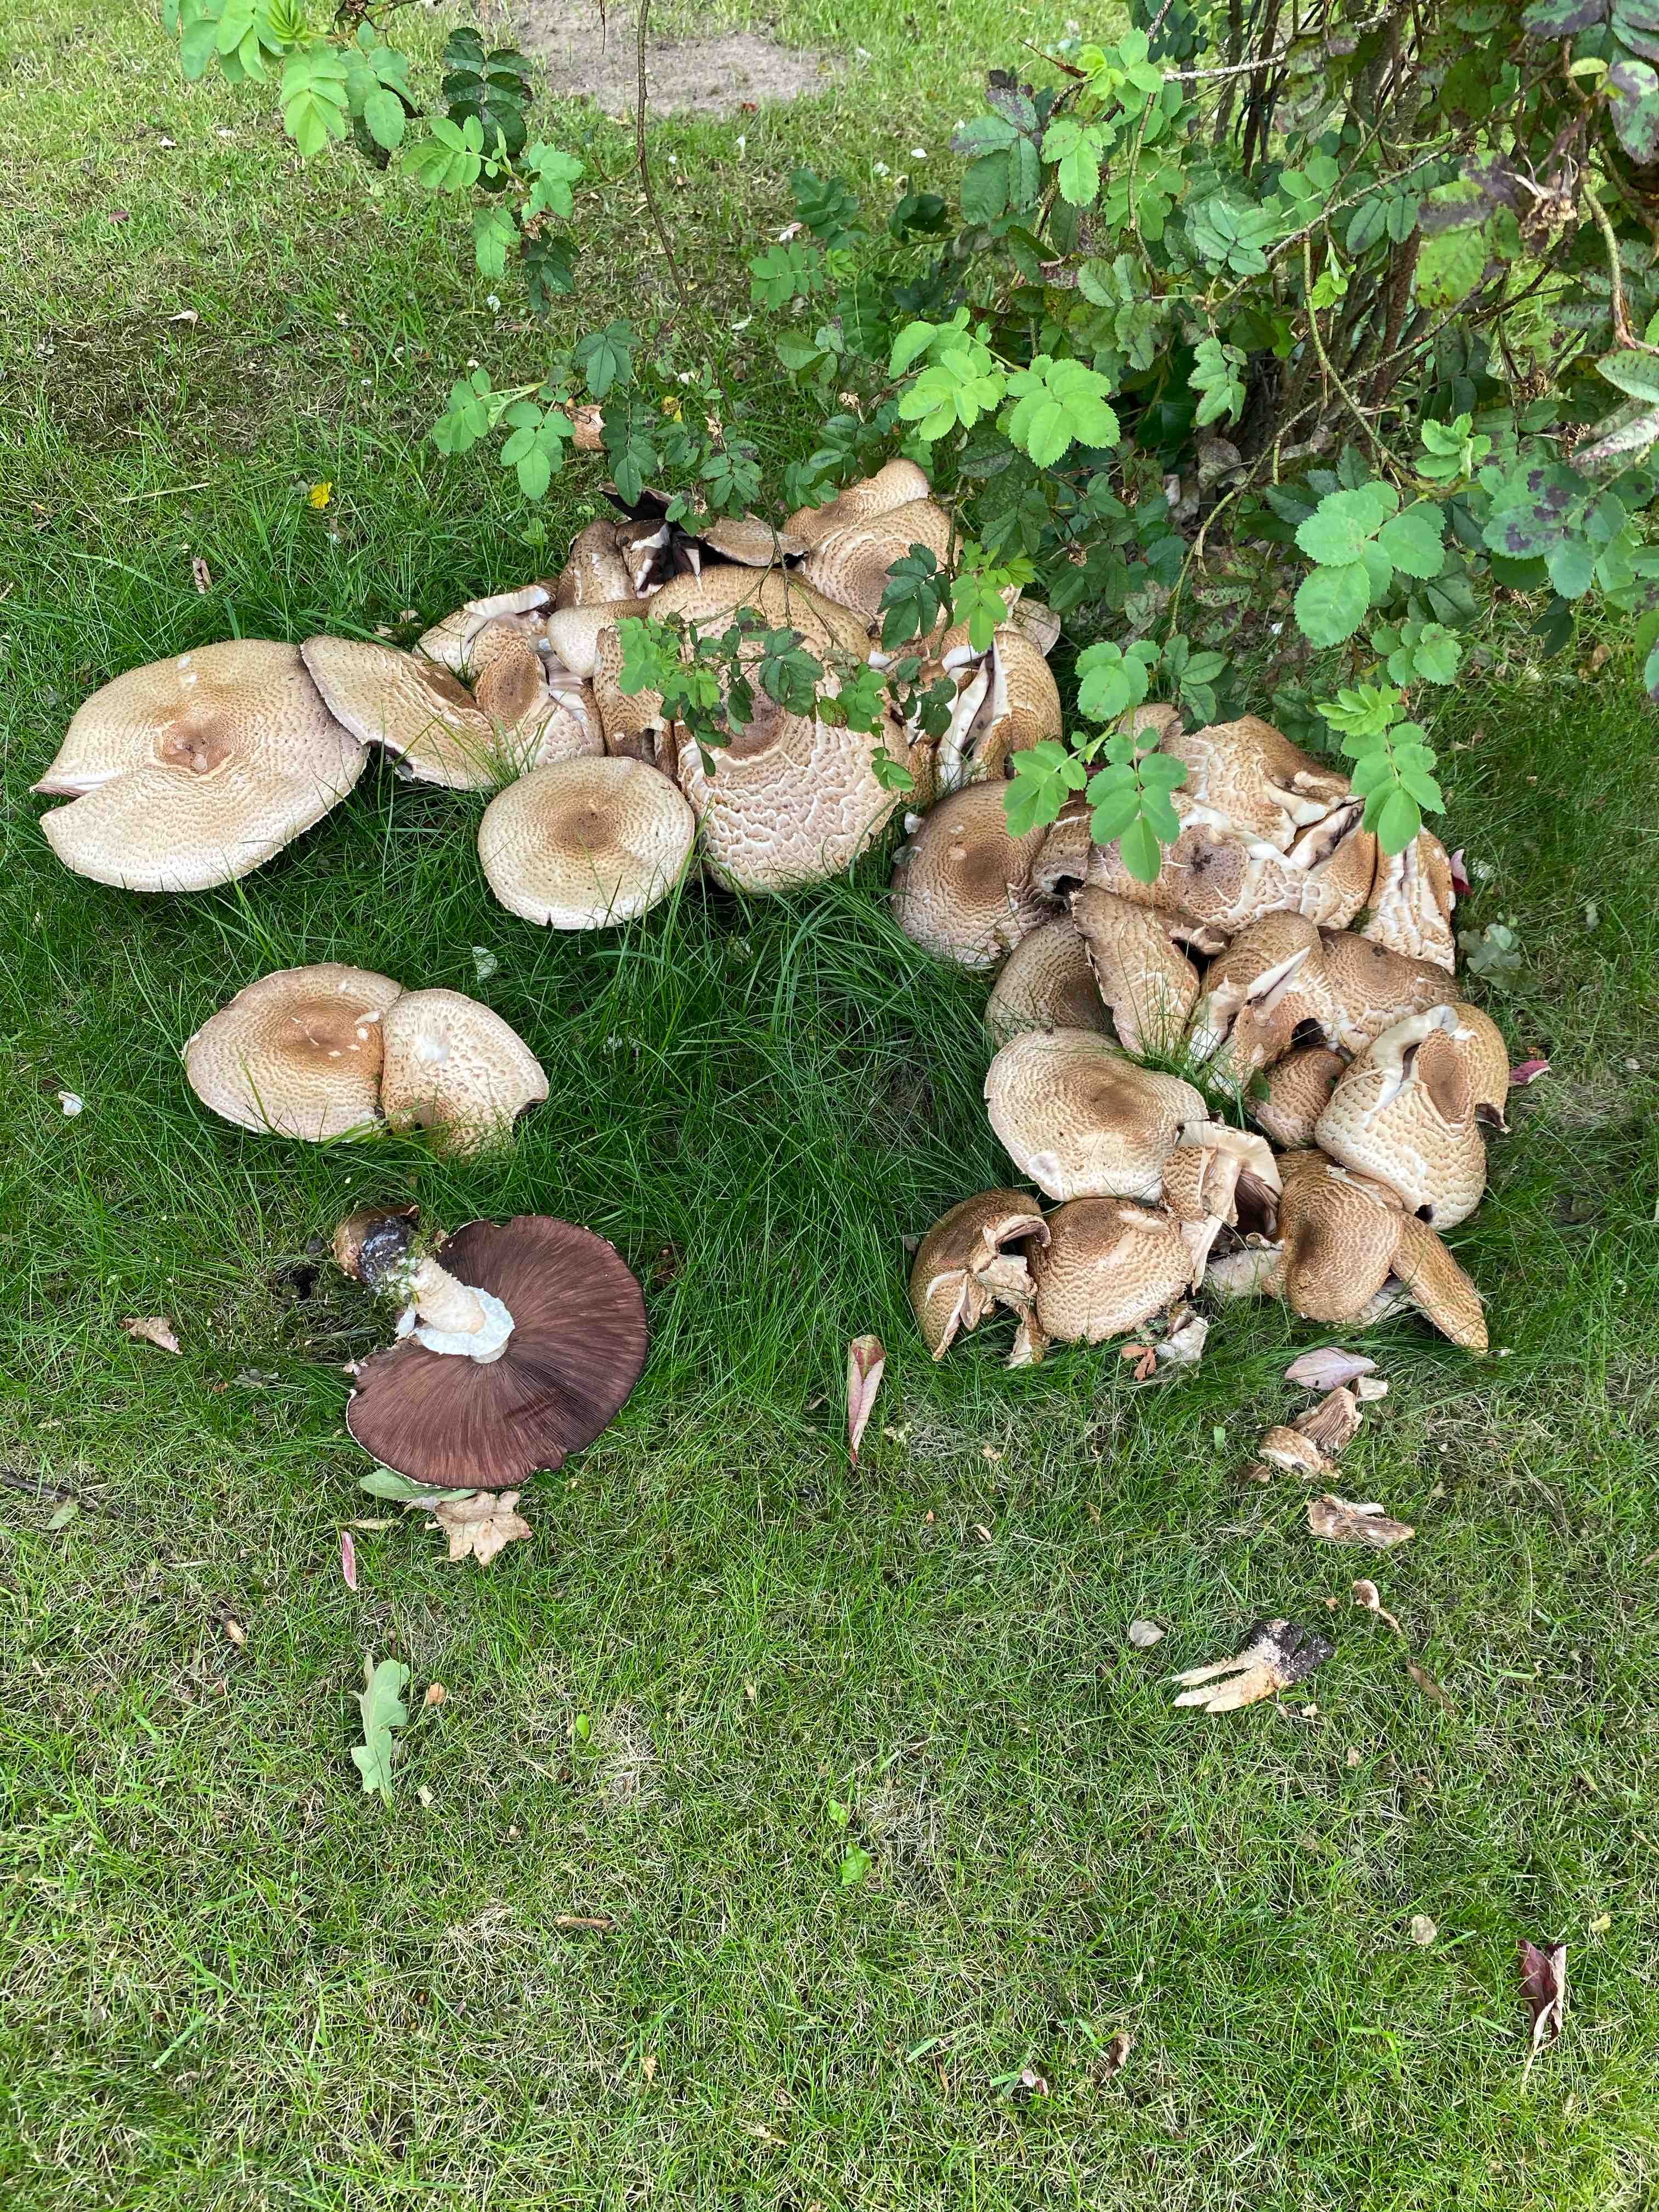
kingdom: Fungi
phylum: Basidiomycota
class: Agaricomycetes
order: Agaricales
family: Agaricaceae
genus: Agaricus
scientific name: Agaricus augustus
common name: prægtig champignon
